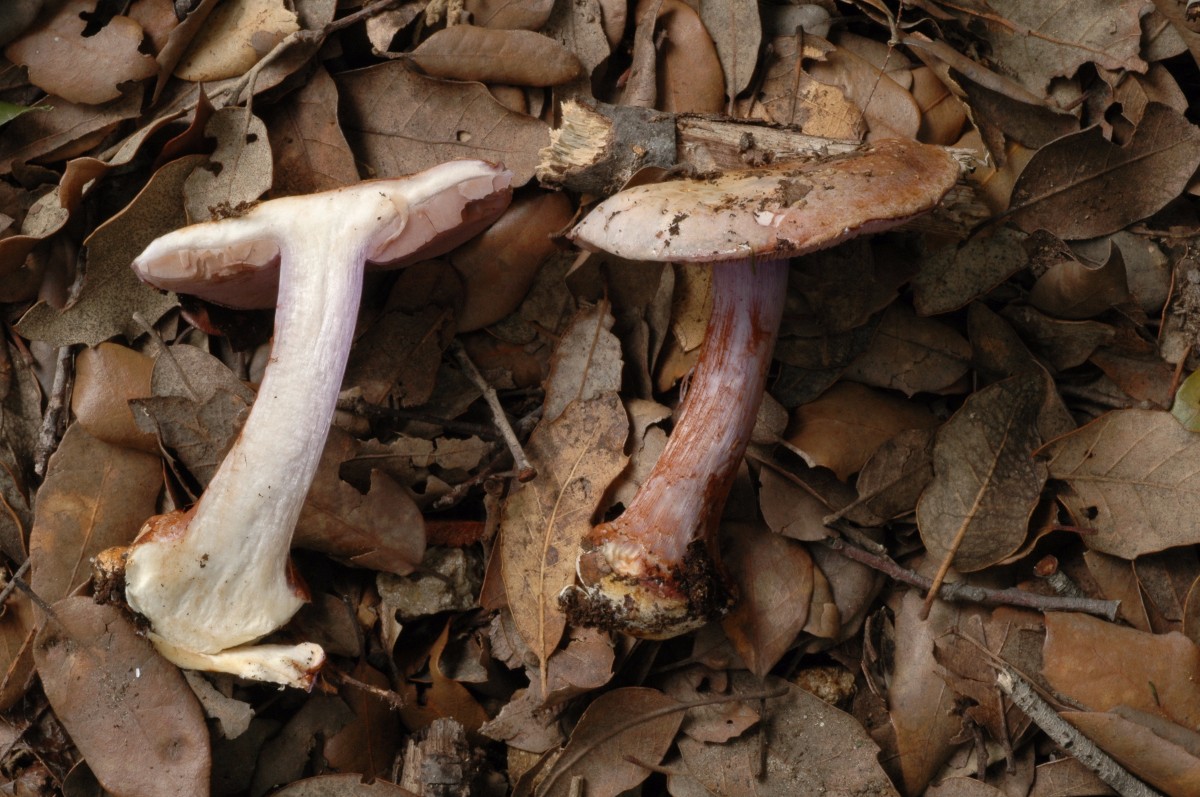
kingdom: Fungi
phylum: Basidiomycota
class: Agaricomycetes
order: Agaricales
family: Cortinariaceae
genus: Calonarius
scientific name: Calonarius violaceipes
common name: stedmoder-slørhat
